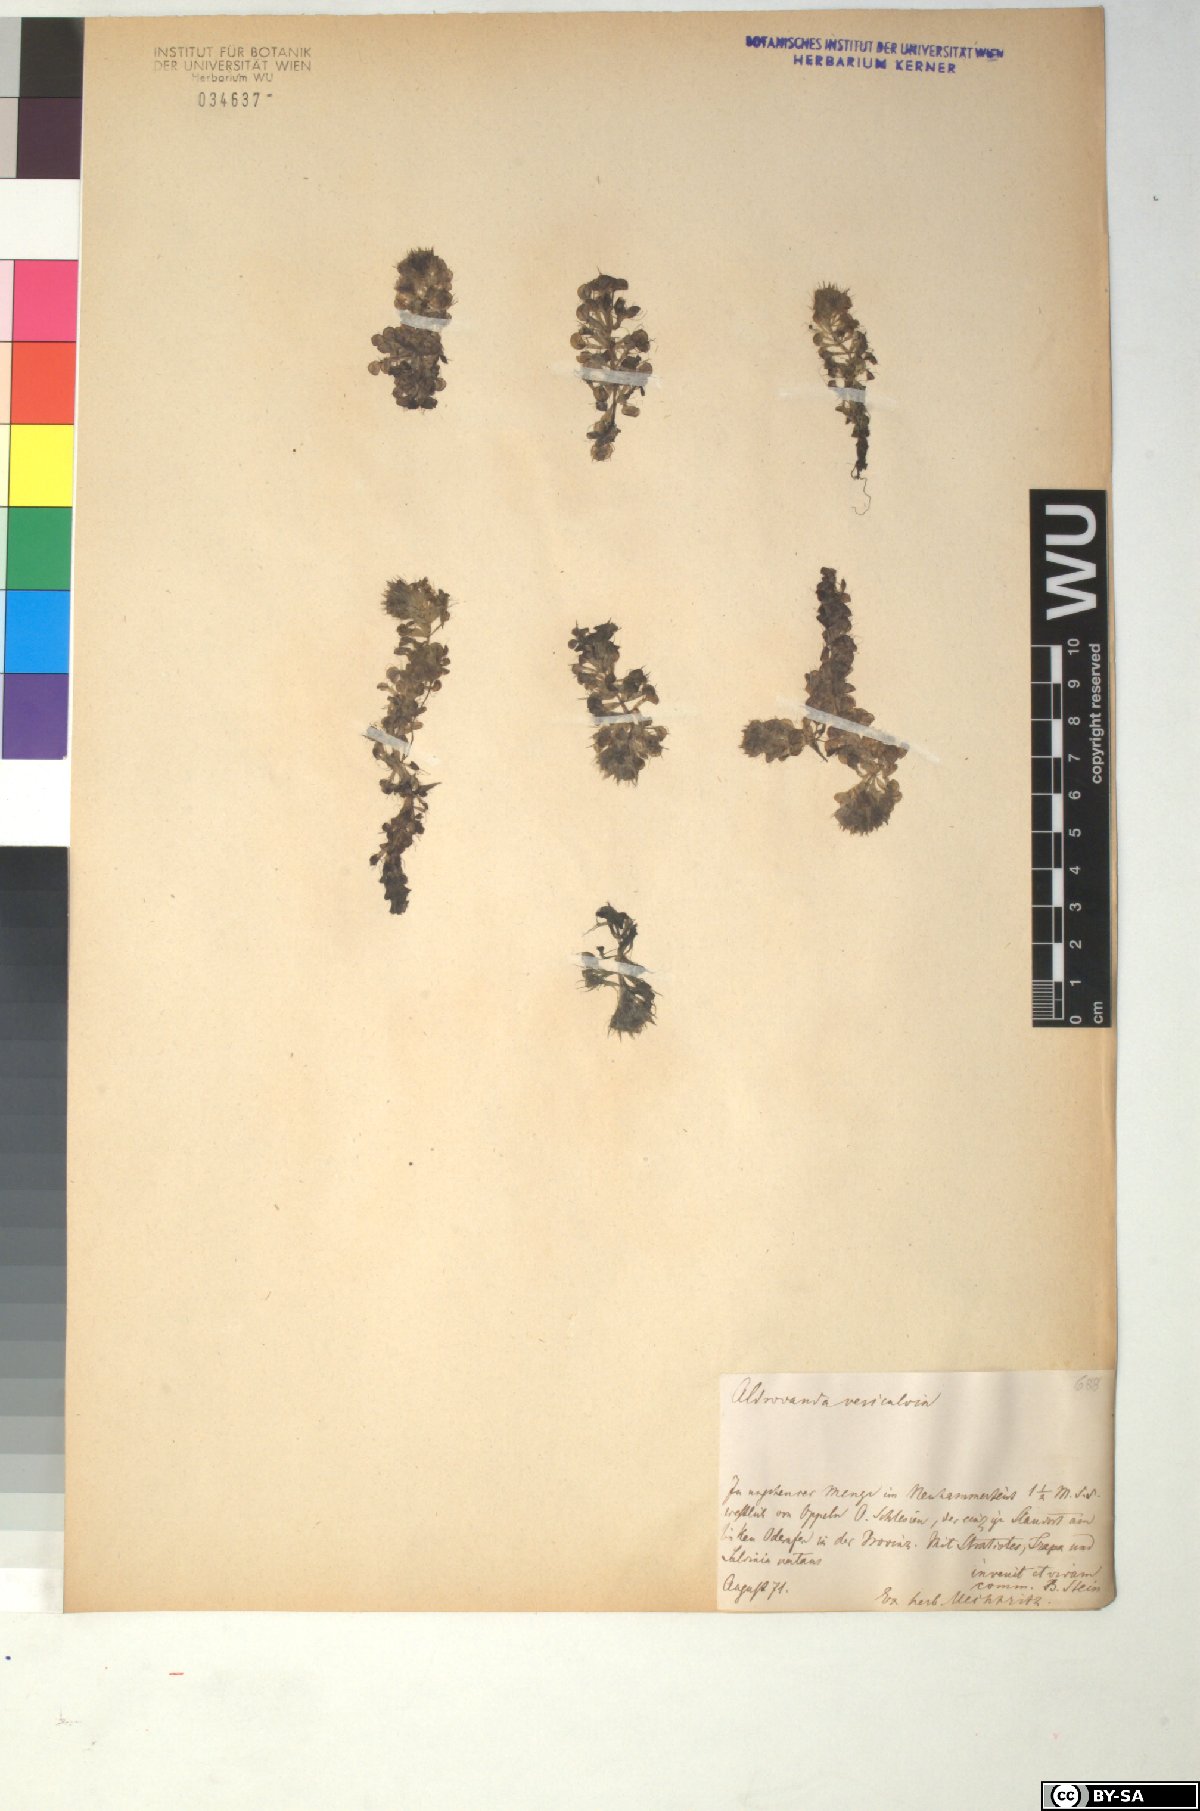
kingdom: Plantae
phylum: Tracheophyta
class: Magnoliopsida
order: Caryophyllales
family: Droseraceae
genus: Aldrovanda
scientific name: Aldrovanda vesiculosa
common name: Waterwheel plant
